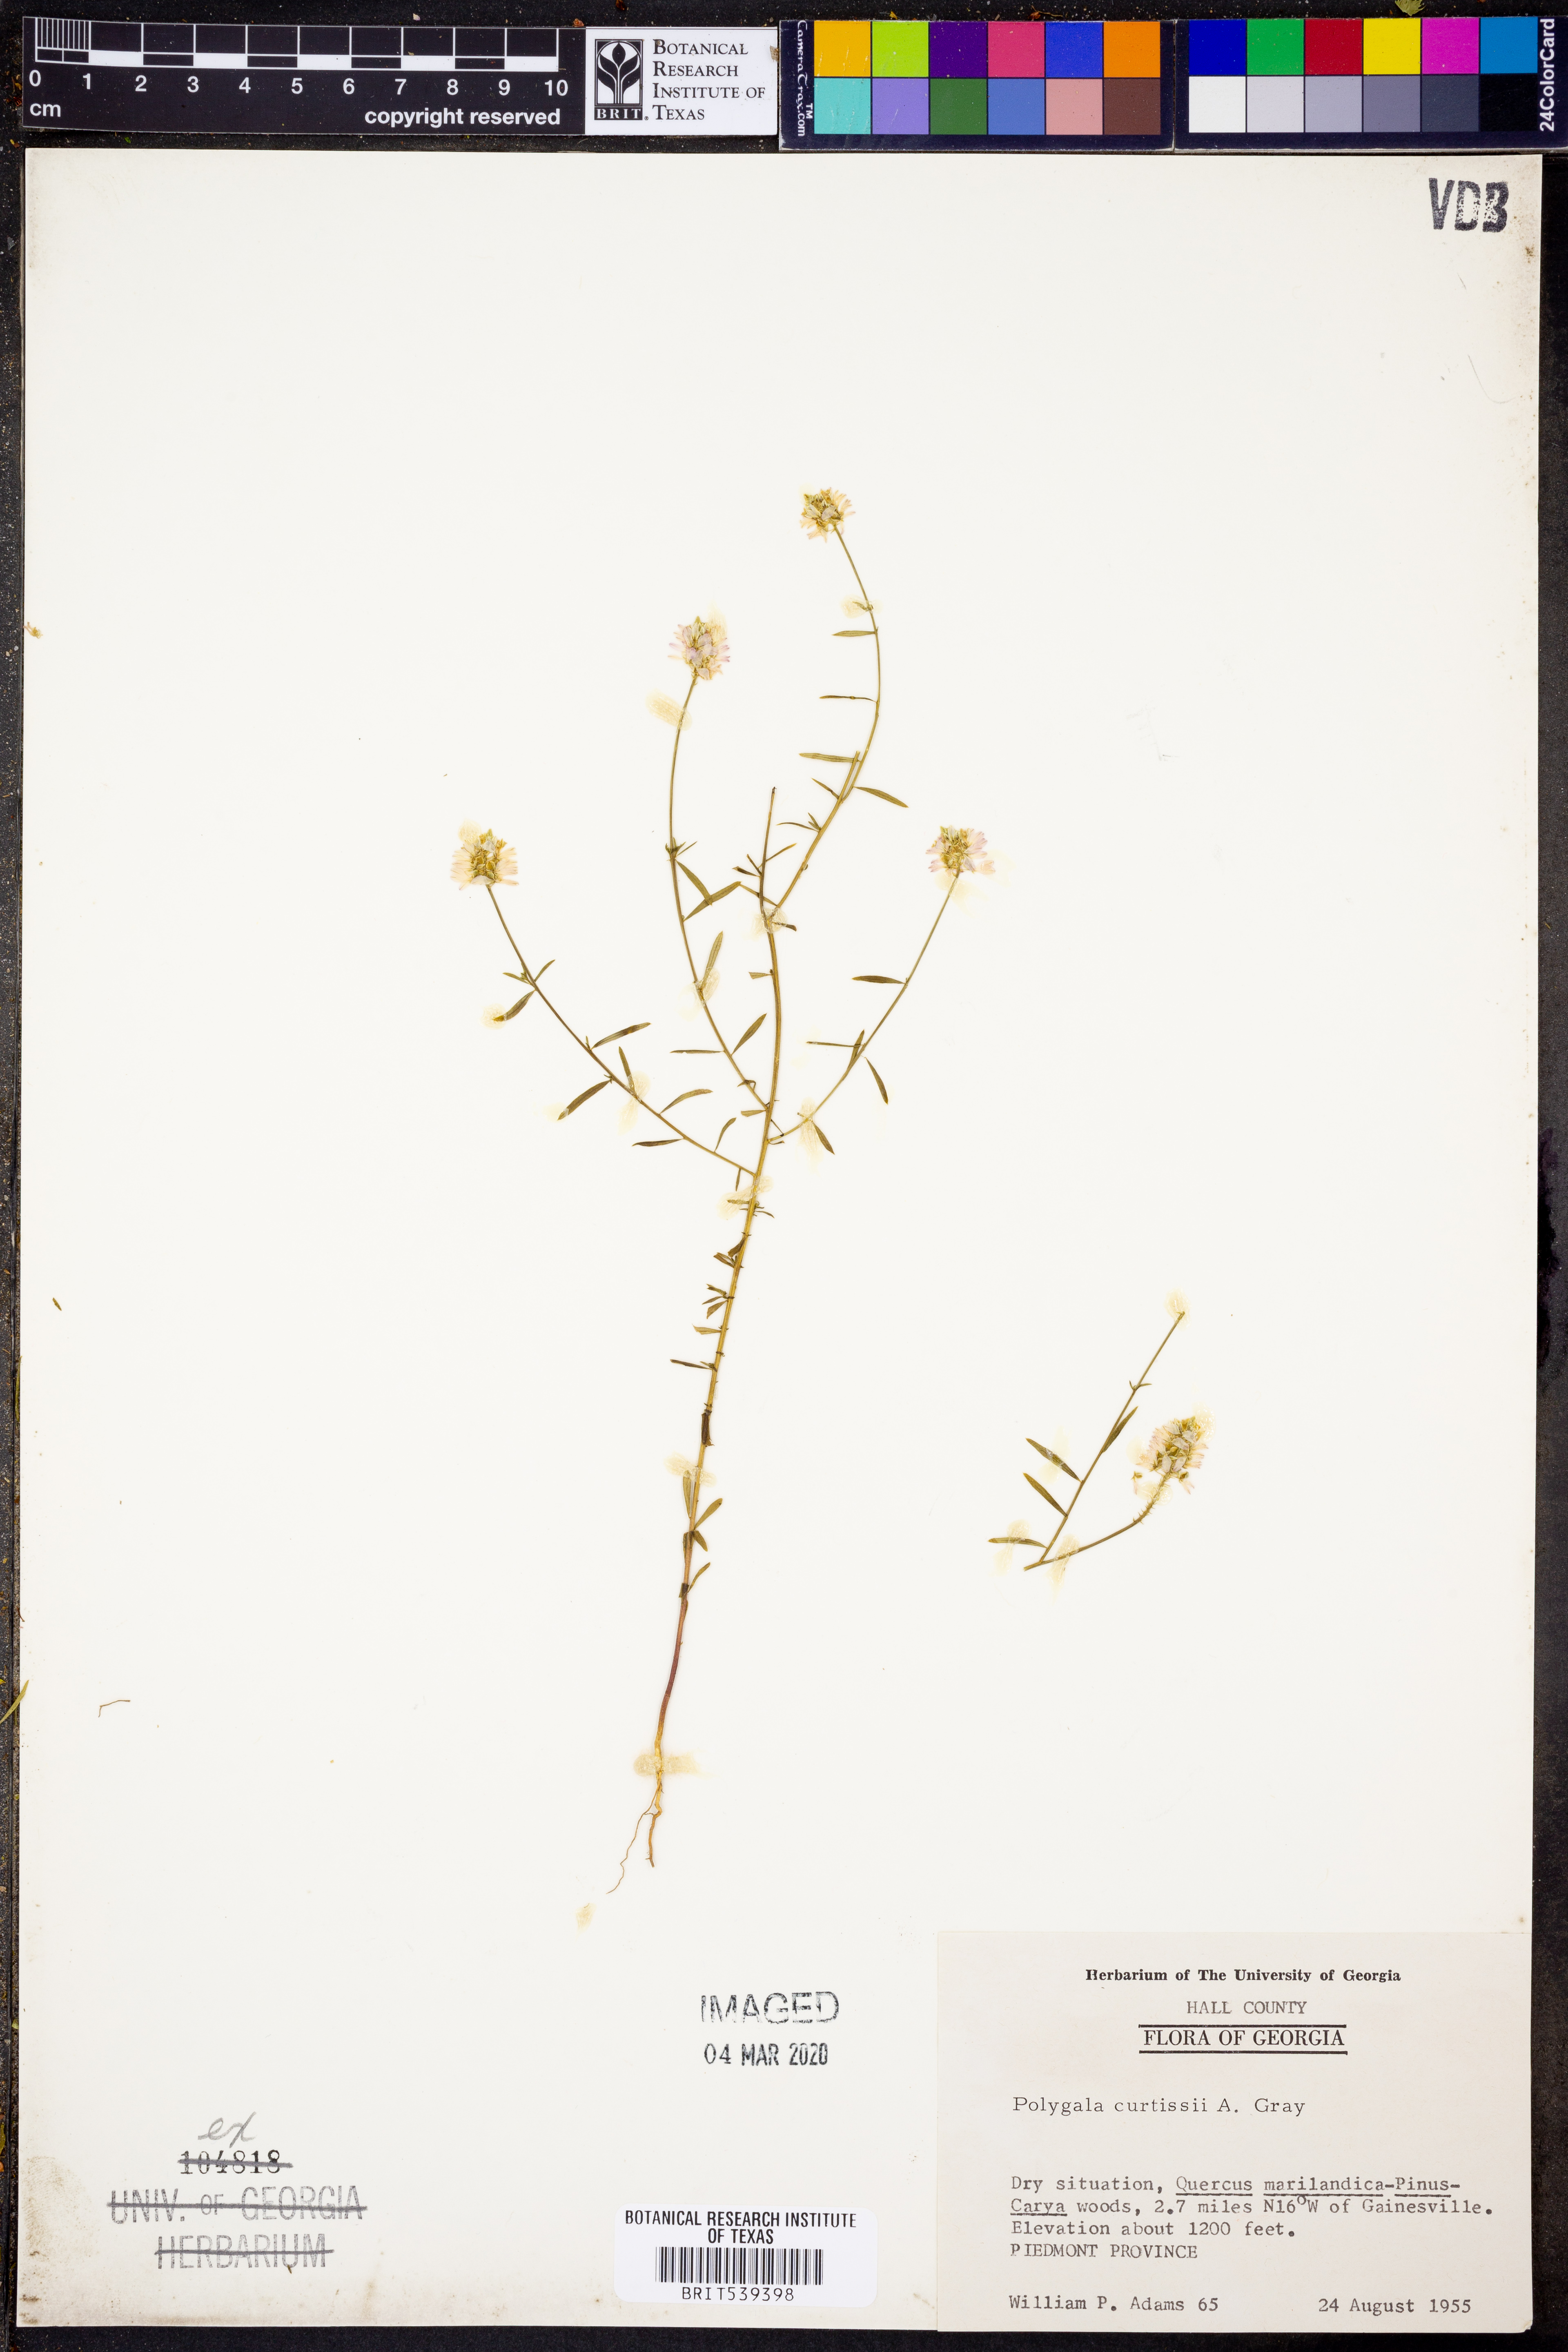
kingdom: Plantae
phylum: Tracheophyta
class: Magnoliopsida
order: Fabales
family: Polygalaceae
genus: Polygala
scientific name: Polygala curtissii
